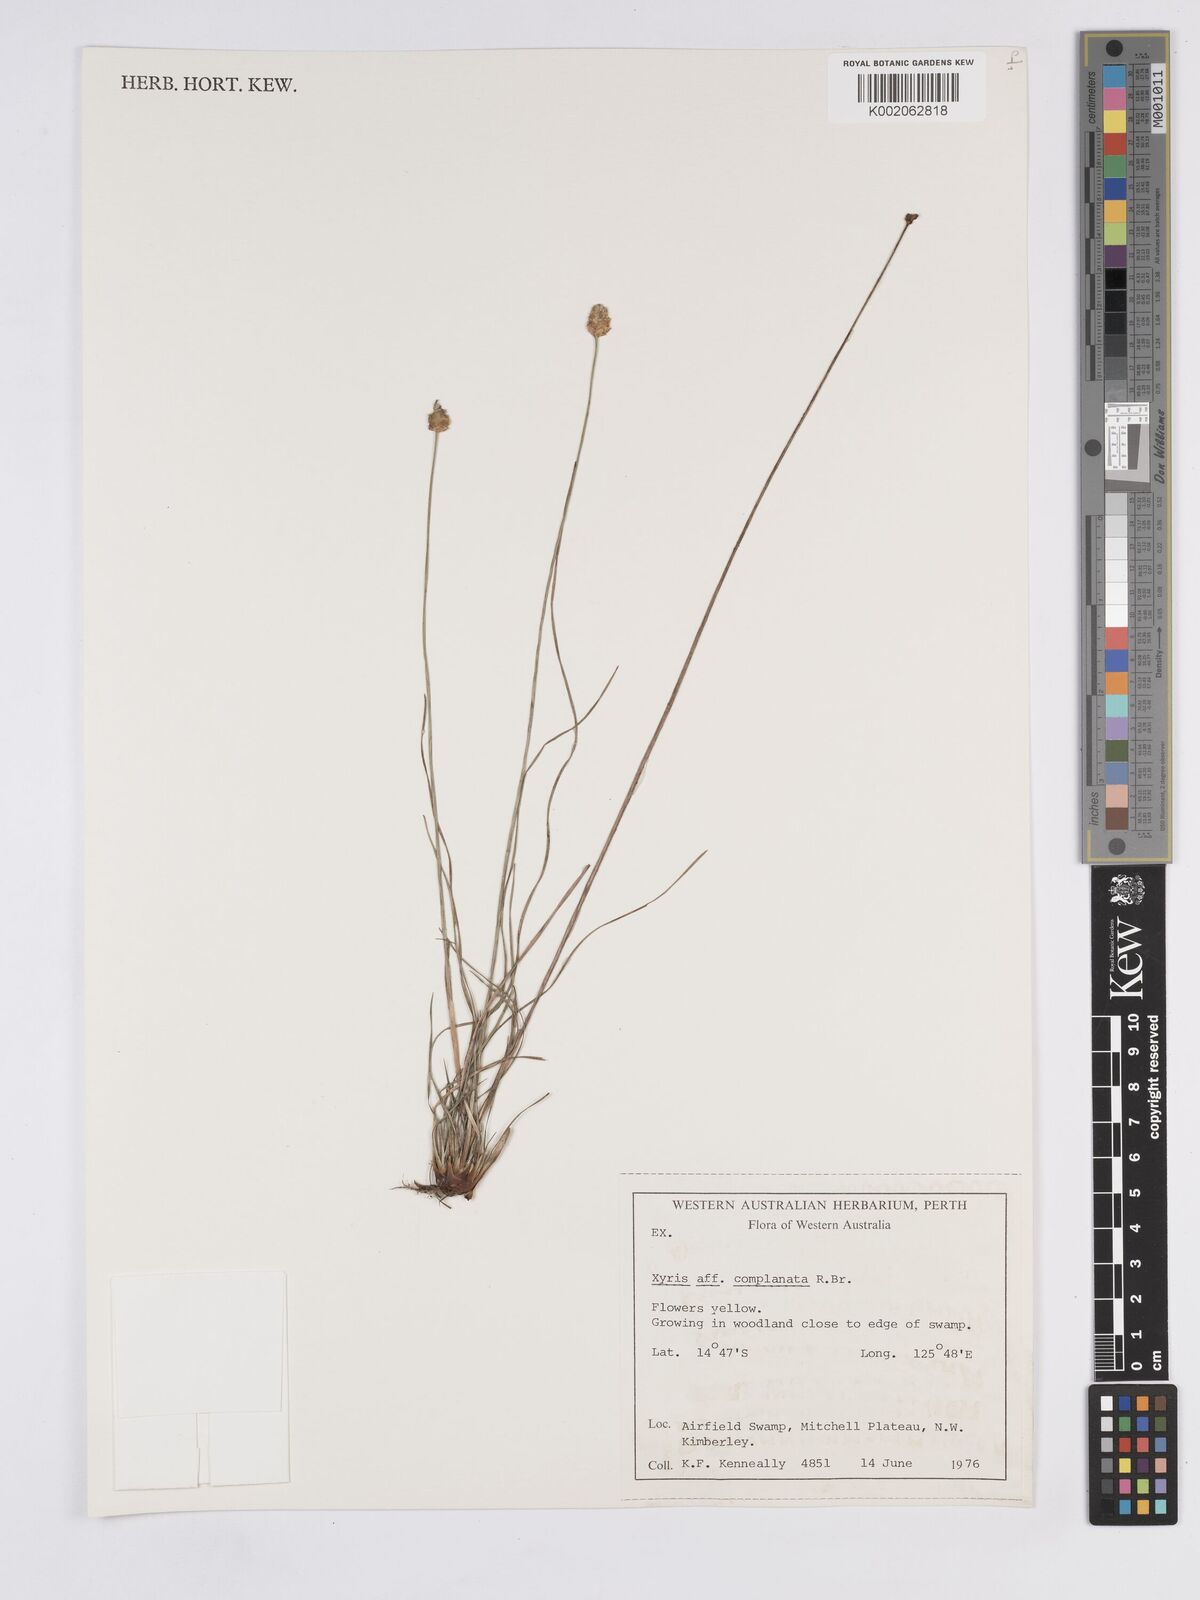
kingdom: Plantae
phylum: Tracheophyta
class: Liliopsida
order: Poales
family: Xyridaceae
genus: Xyris
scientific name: Xyris complanata
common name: Hawai'i yelloweyed grass
